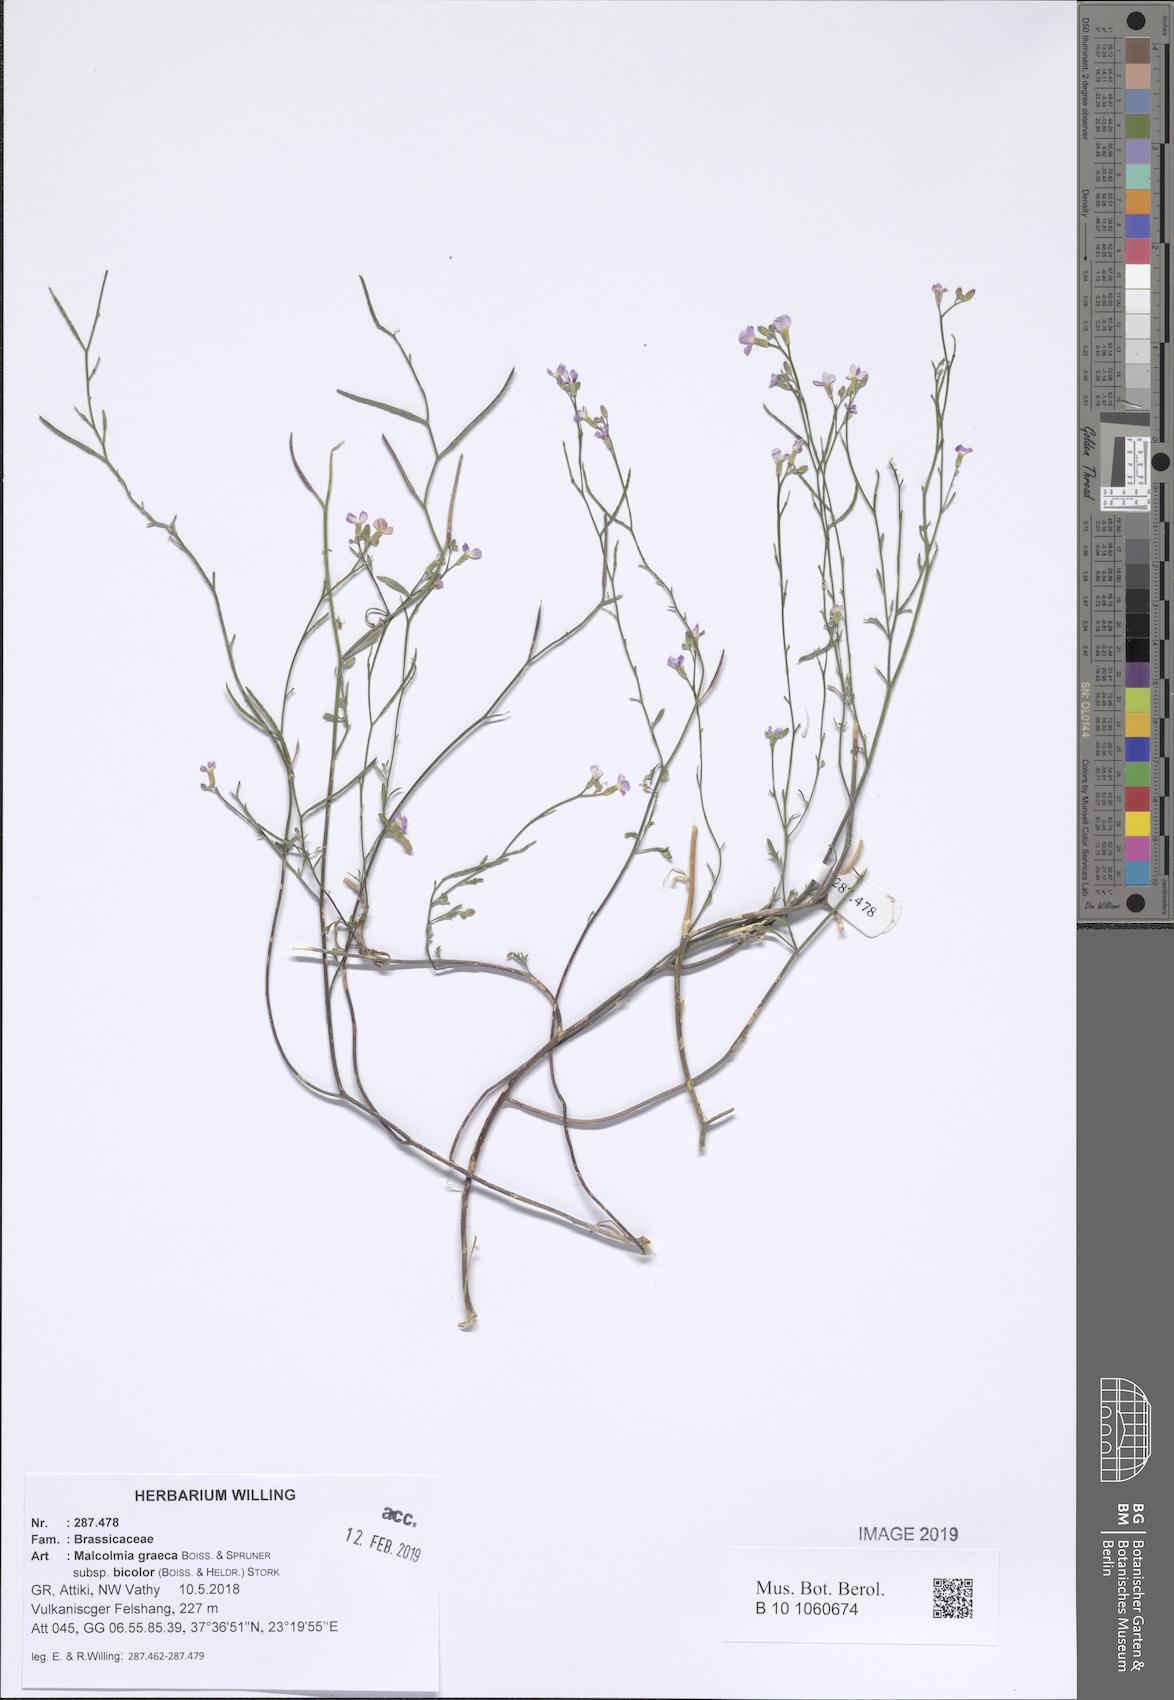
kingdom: Plantae
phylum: Tracheophyta
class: Magnoliopsida
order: Brassicales
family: Brassicaceae
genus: Malcolmia
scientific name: Malcolmia graeca
